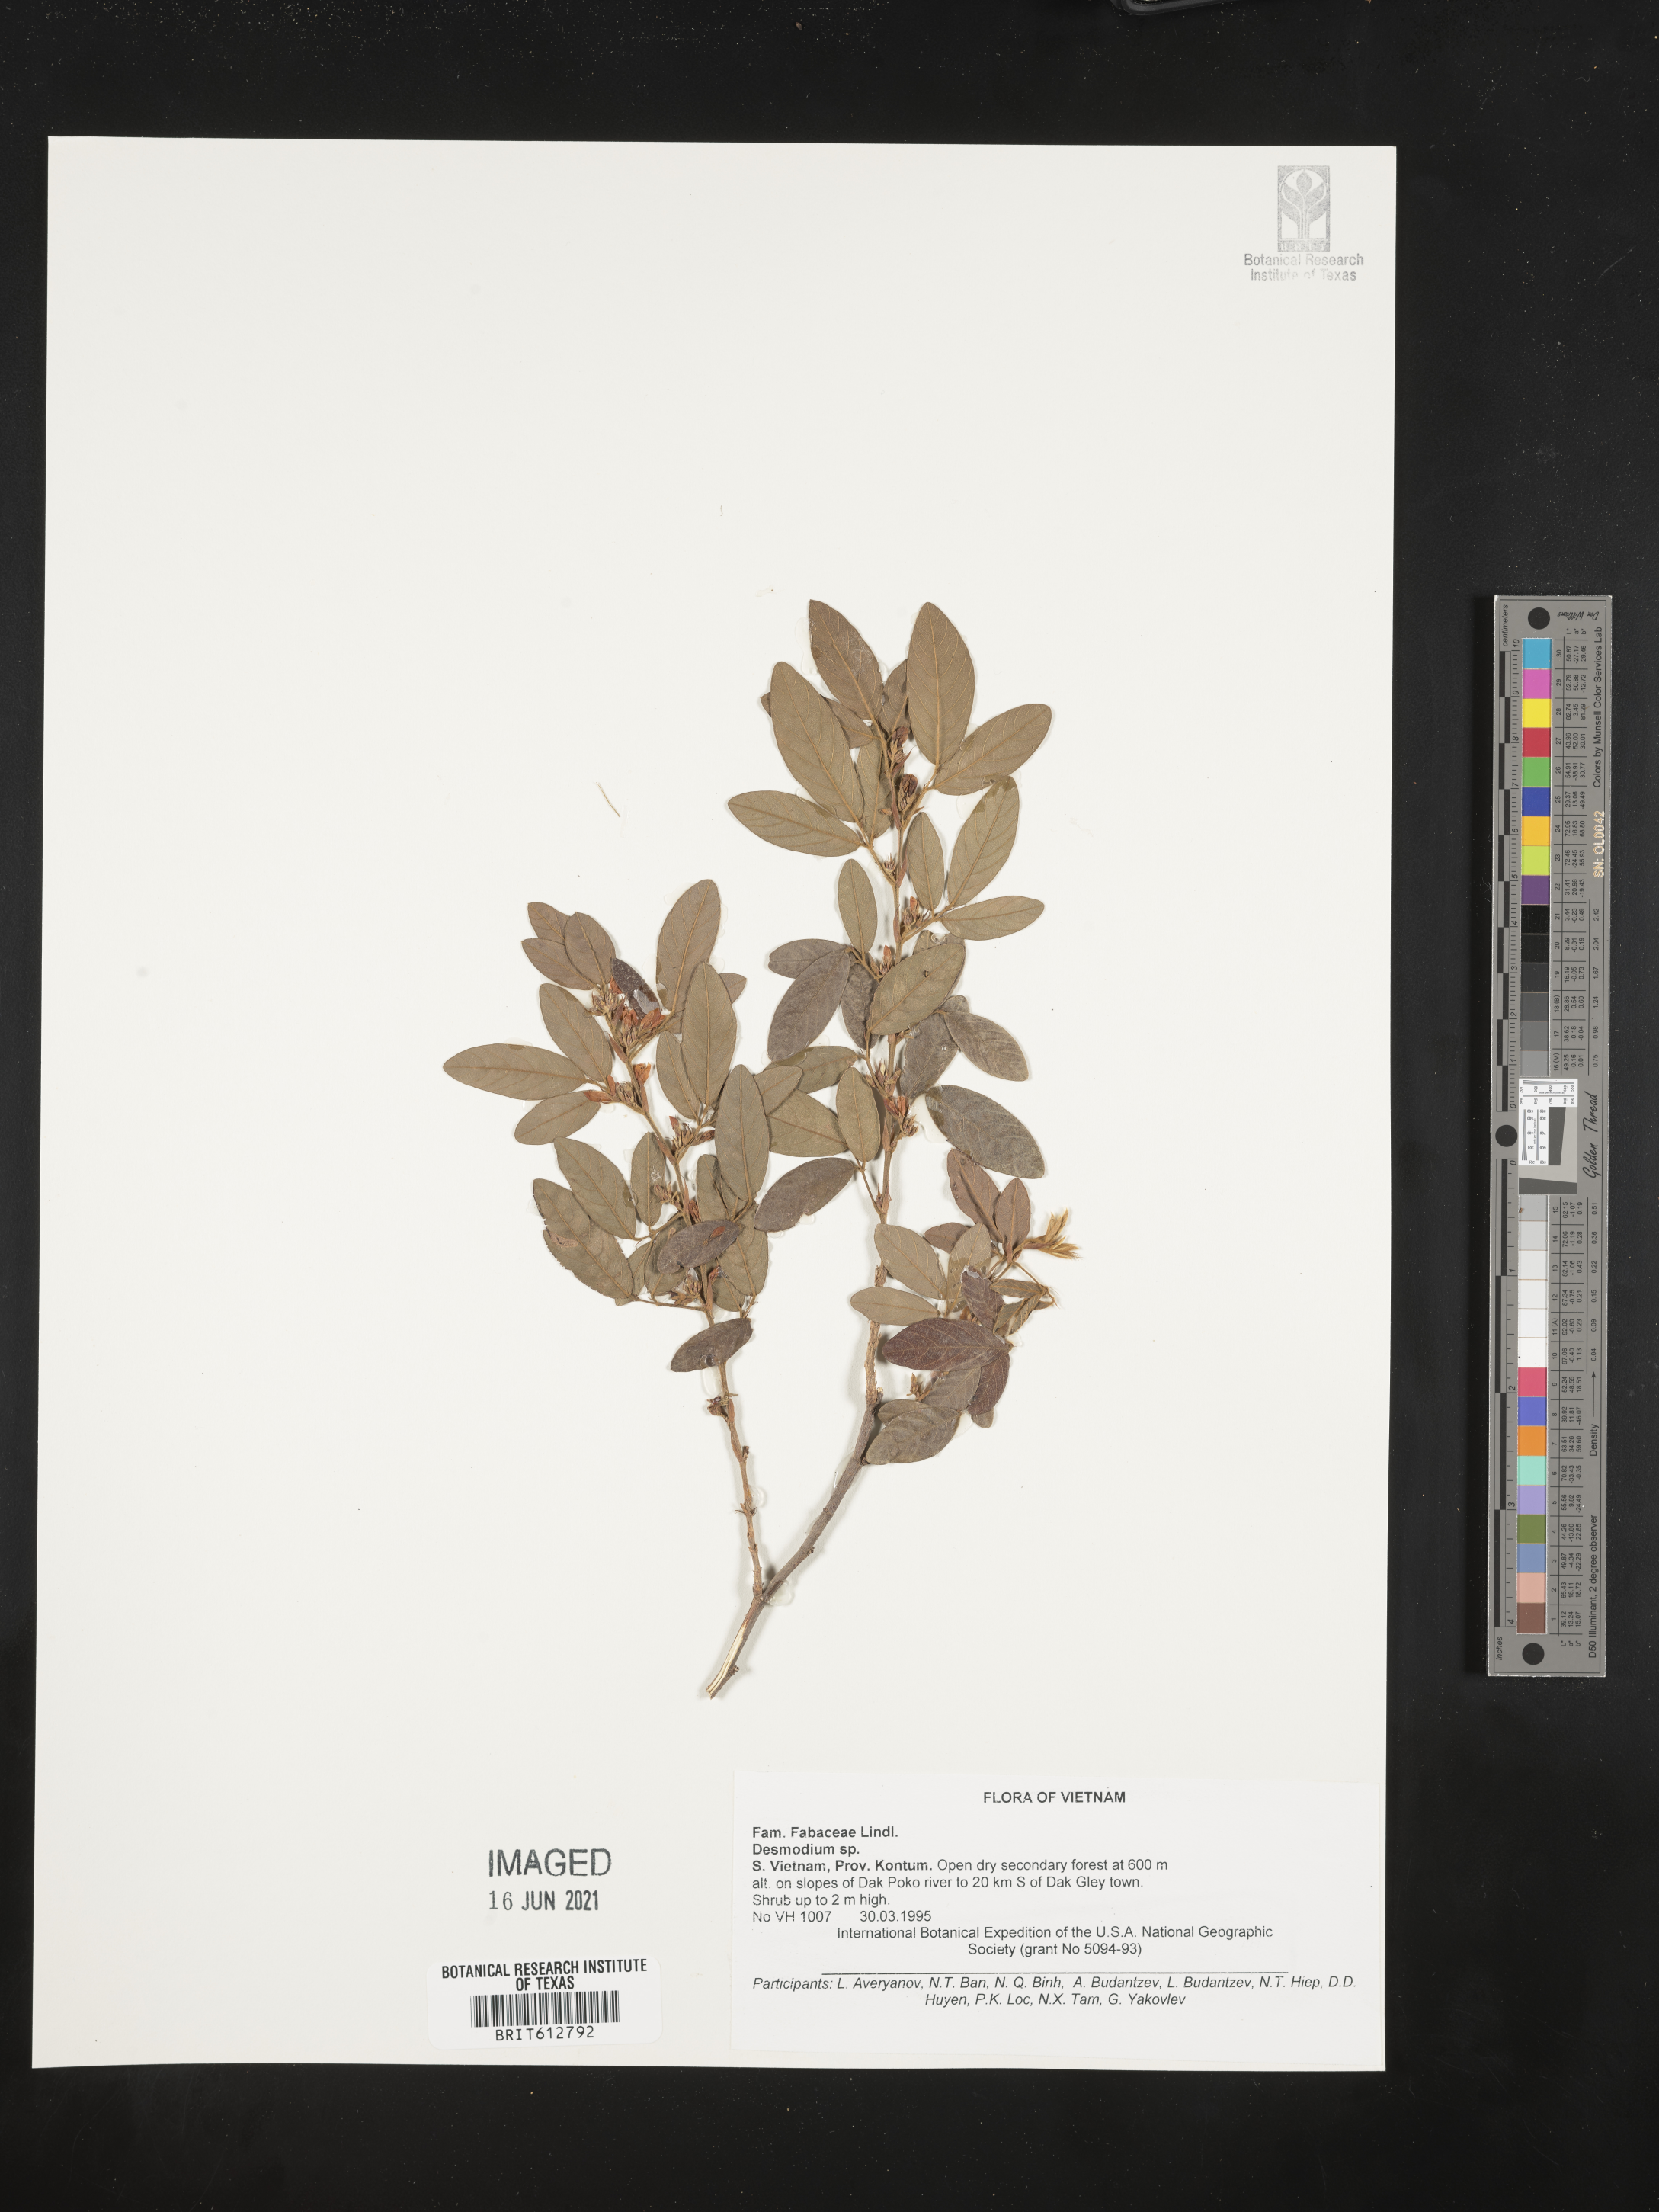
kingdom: Plantae
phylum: Tracheophyta
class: Magnoliopsida
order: Fabales
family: Fabaceae
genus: Desmodium
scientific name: Desmodium
